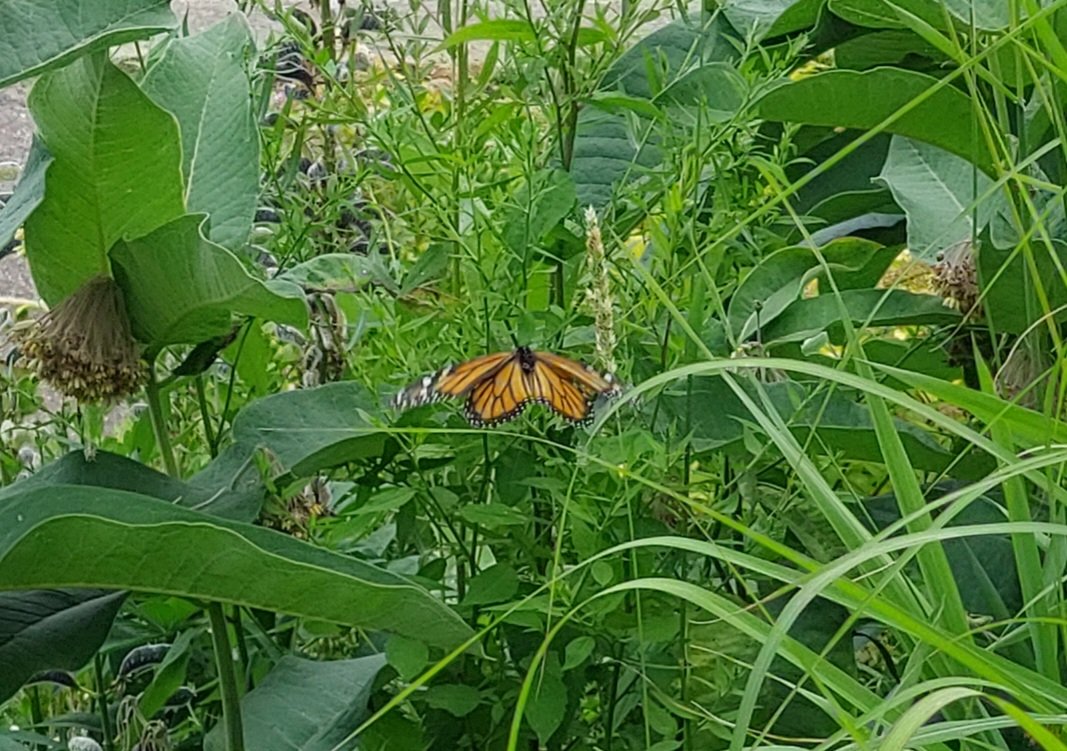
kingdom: Animalia
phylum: Arthropoda
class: Insecta
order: Lepidoptera
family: Nymphalidae
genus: Danaus
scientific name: Danaus plexippus
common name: Monarch
